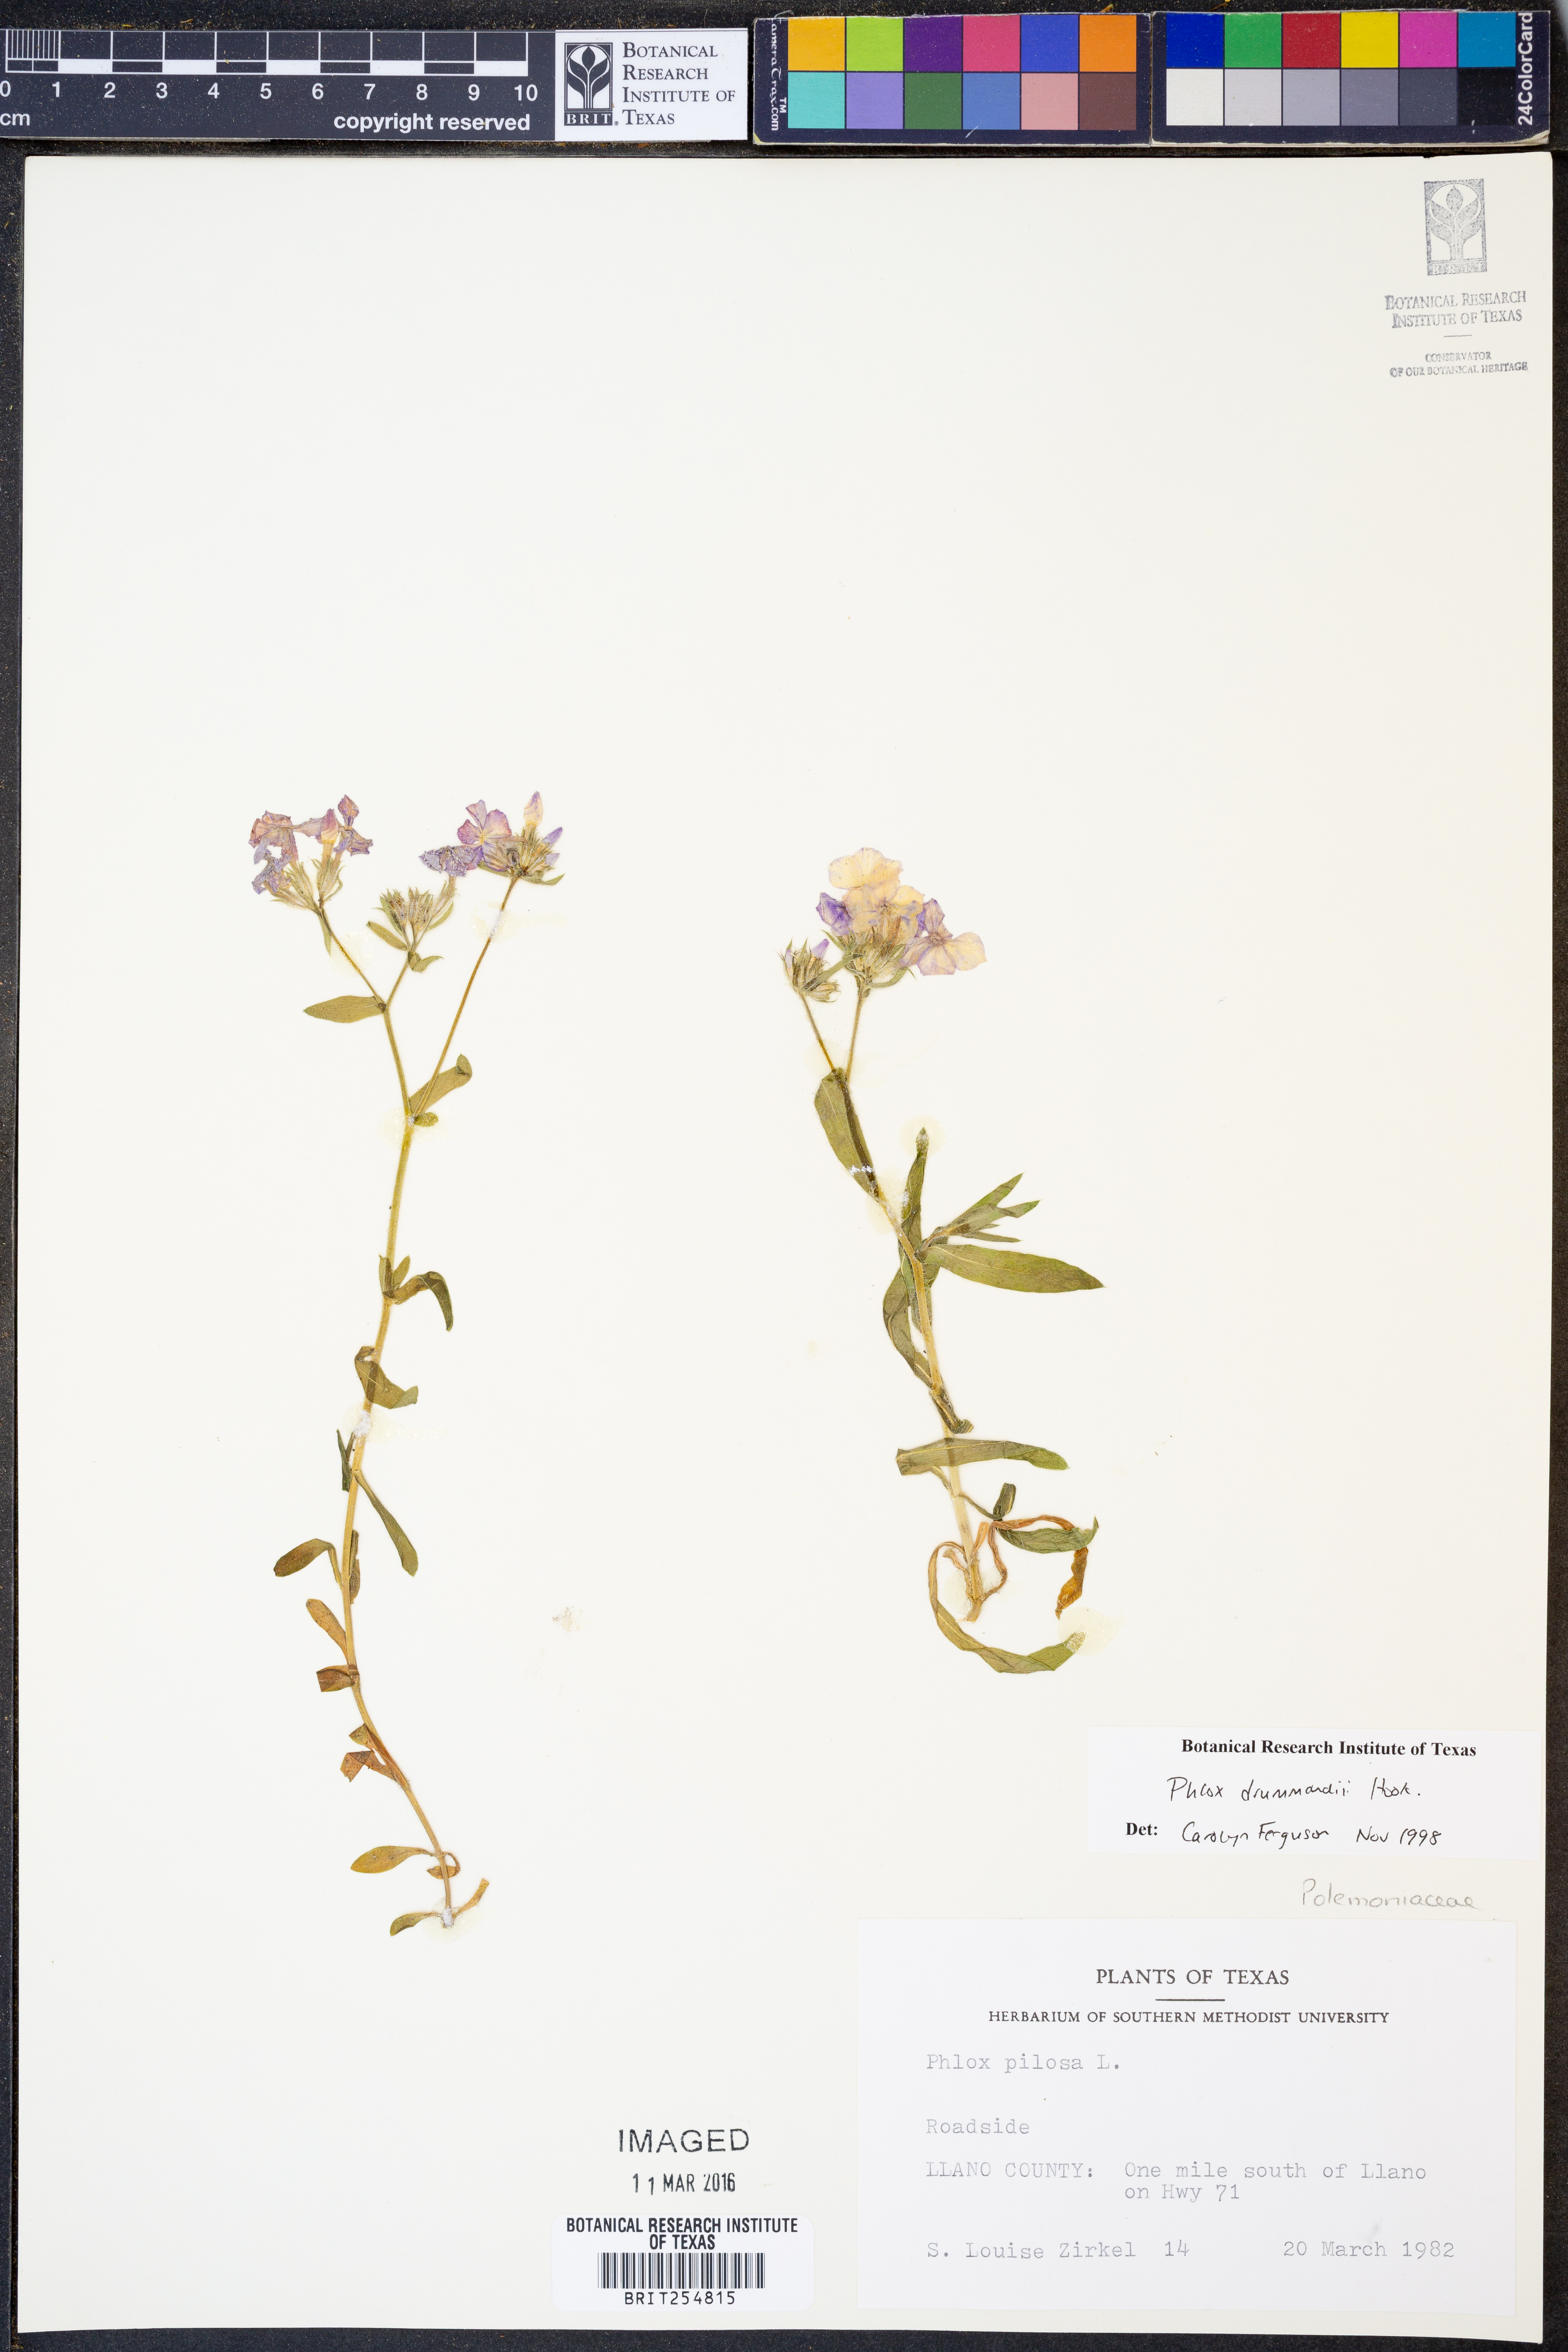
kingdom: Plantae
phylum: Tracheophyta
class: Magnoliopsida
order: Ericales
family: Polemoniaceae
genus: Phlox
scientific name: Phlox drummondii
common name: Drummond's phlox
